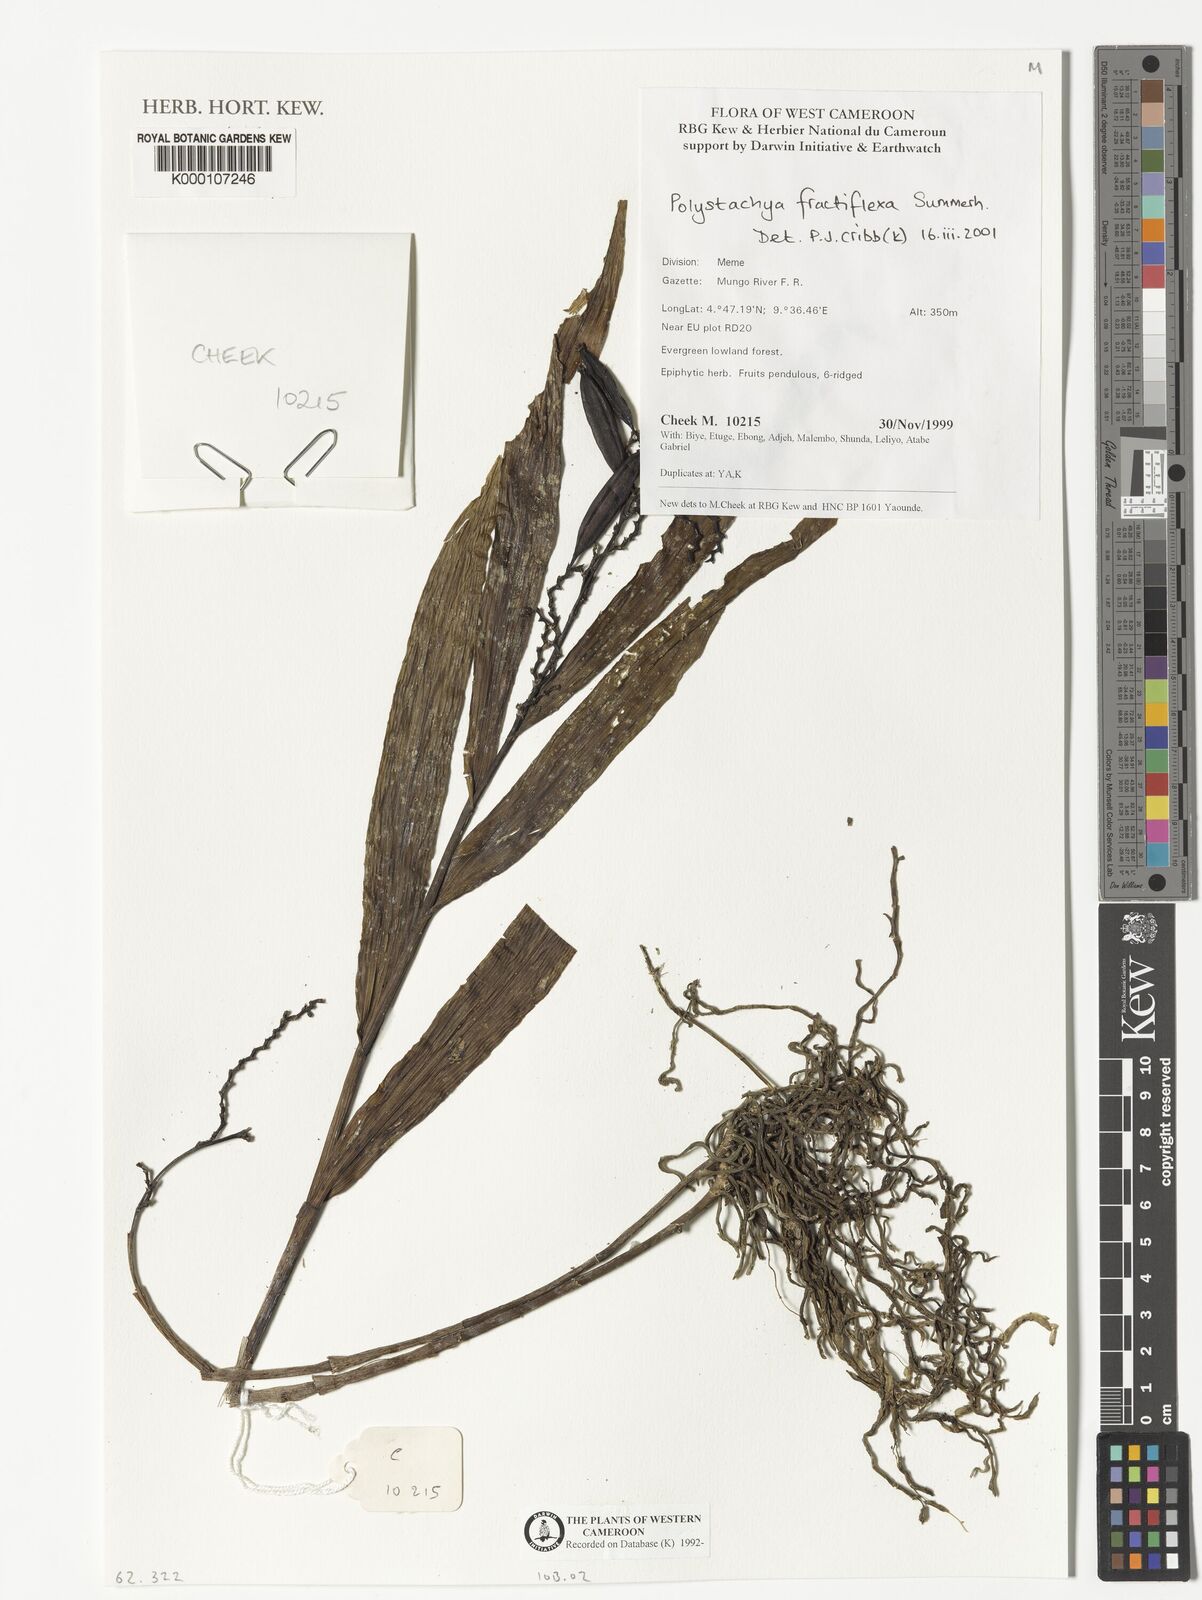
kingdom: Plantae
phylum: Tracheophyta
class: Liliopsida
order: Asparagales
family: Orchidaceae
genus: Polystachya
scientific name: Polystachya fractiflexa
